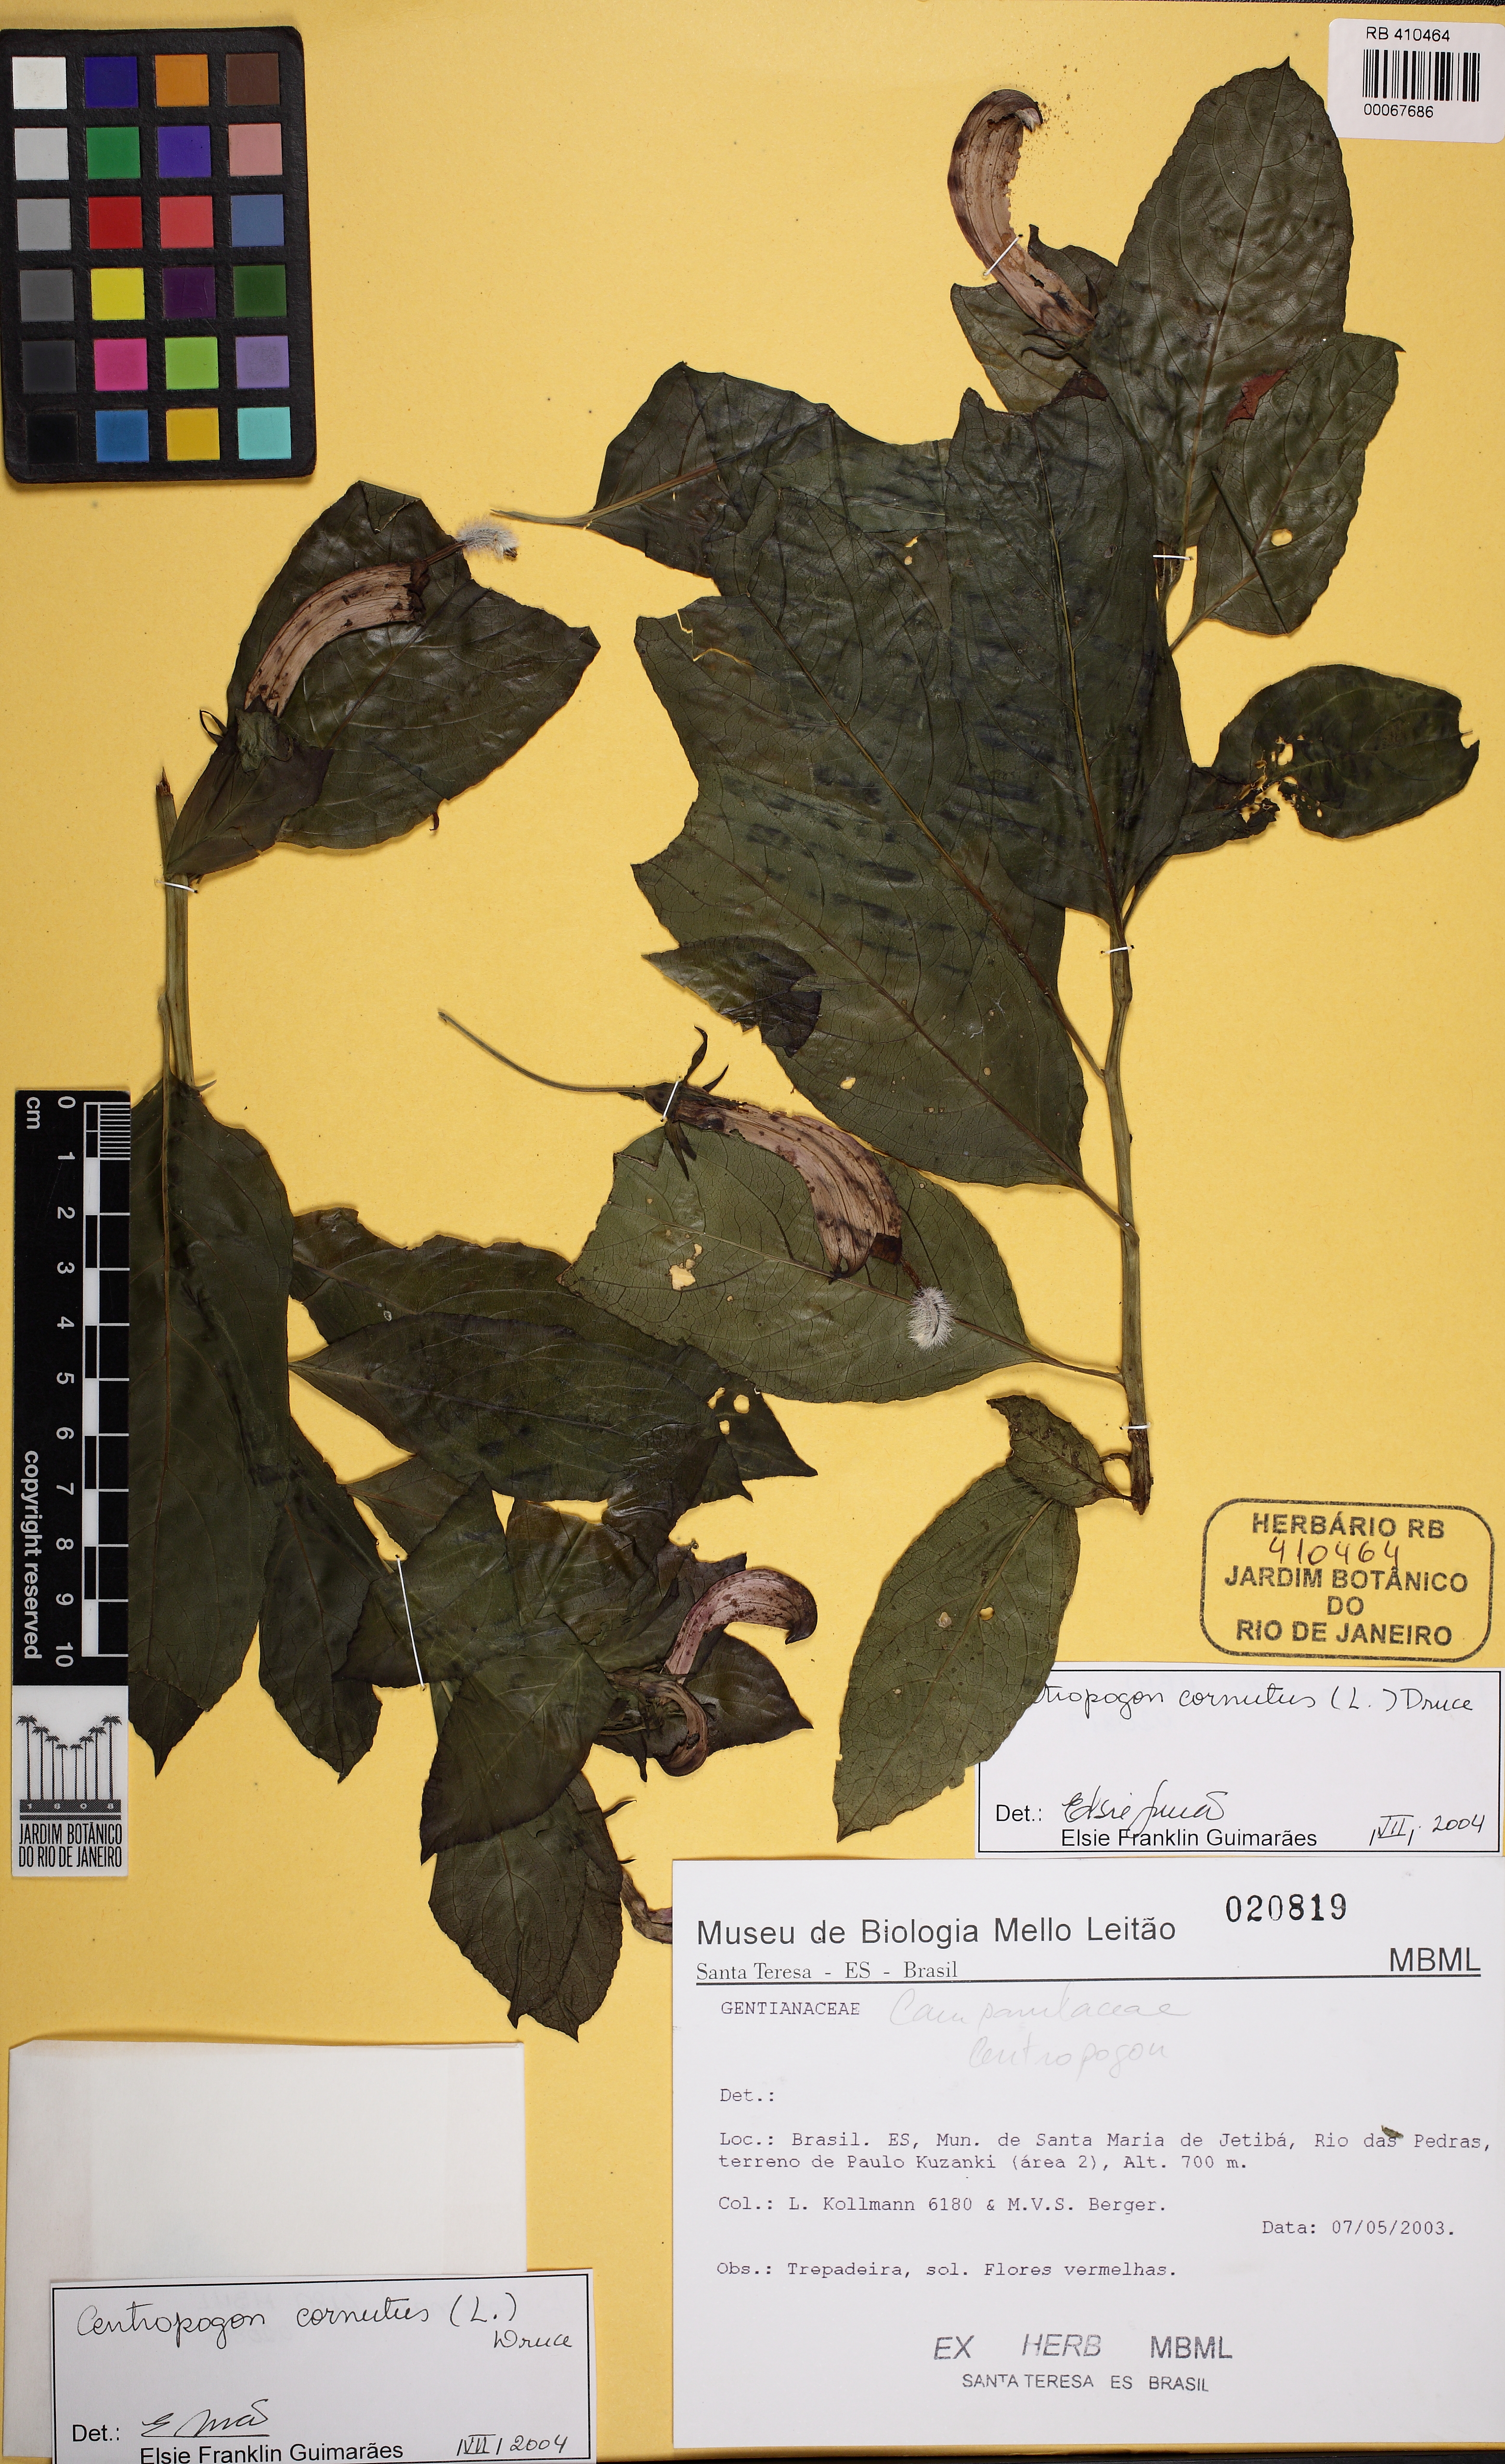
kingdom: Plantae
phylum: Tracheophyta
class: Magnoliopsida
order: Asterales
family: Campanulaceae
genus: Centropogon
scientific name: Centropogon cornutus
